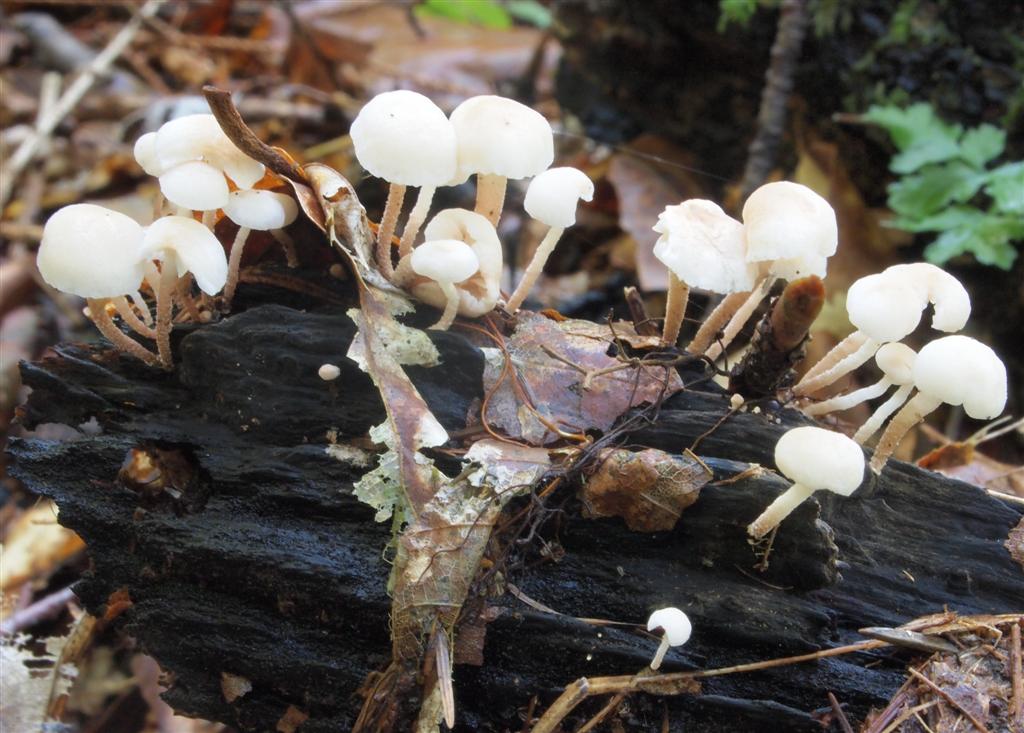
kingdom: Fungi
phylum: Basidiomycota
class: Agaricomycetes
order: Agaricales
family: Omphalotaceae
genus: Collybiopsis
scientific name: Collybiopsis ramealis
